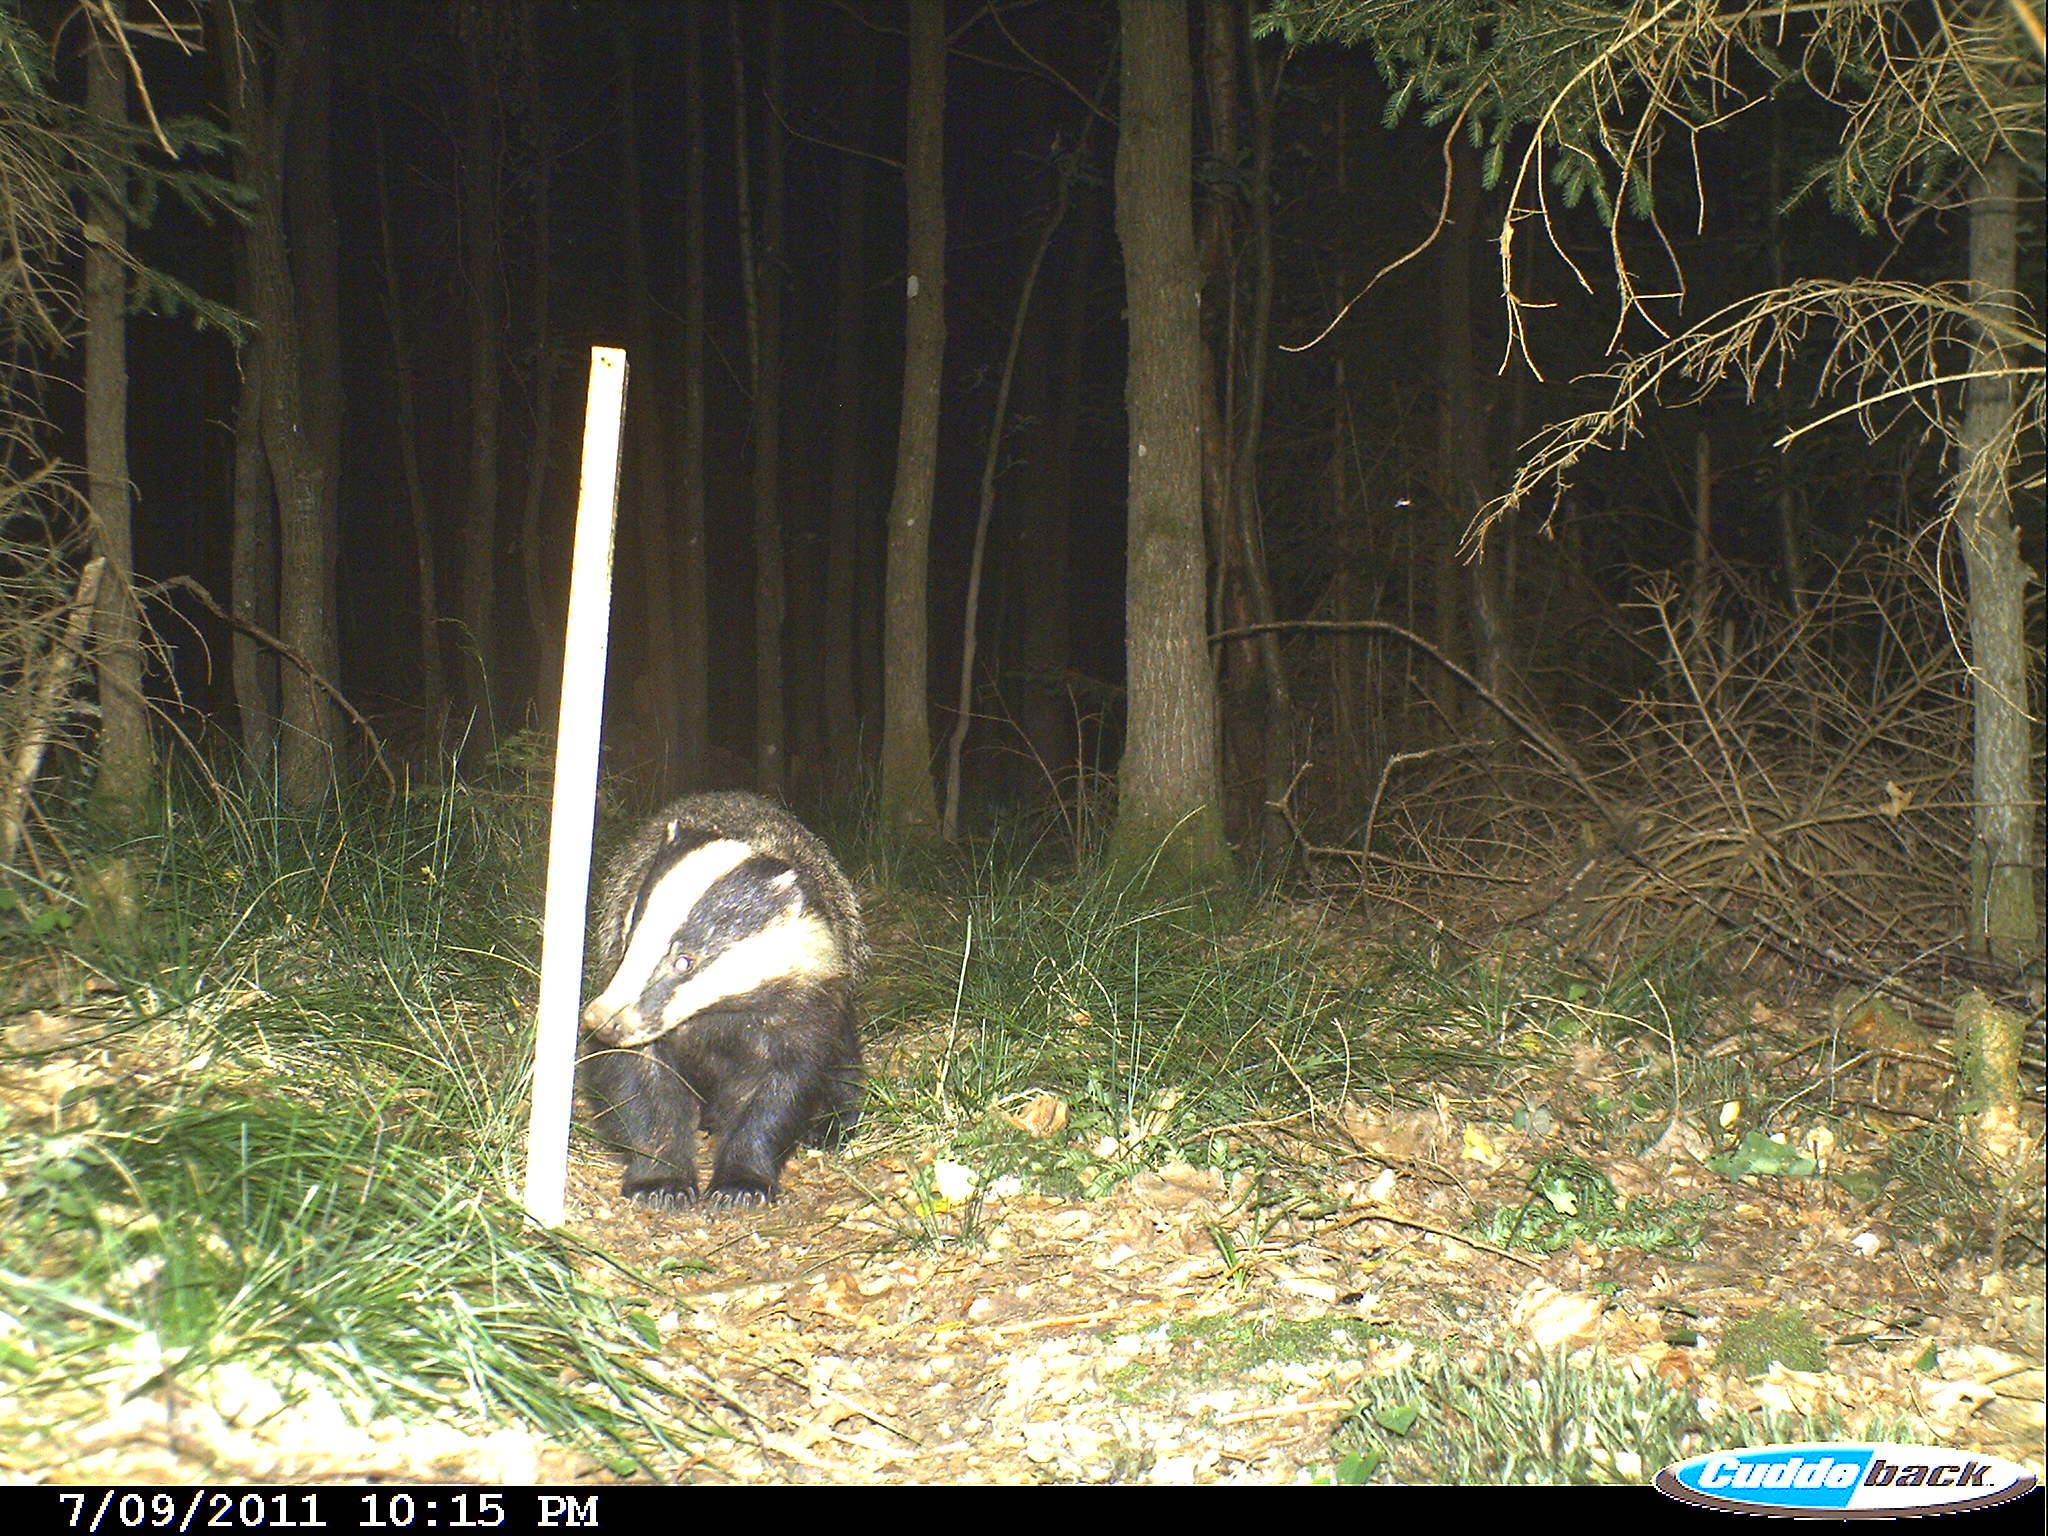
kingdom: Animalia
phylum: Chordata
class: Mammalia
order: Carnivora
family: Mustelidae
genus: Meles
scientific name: Meles meles
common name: Eurasian badger
